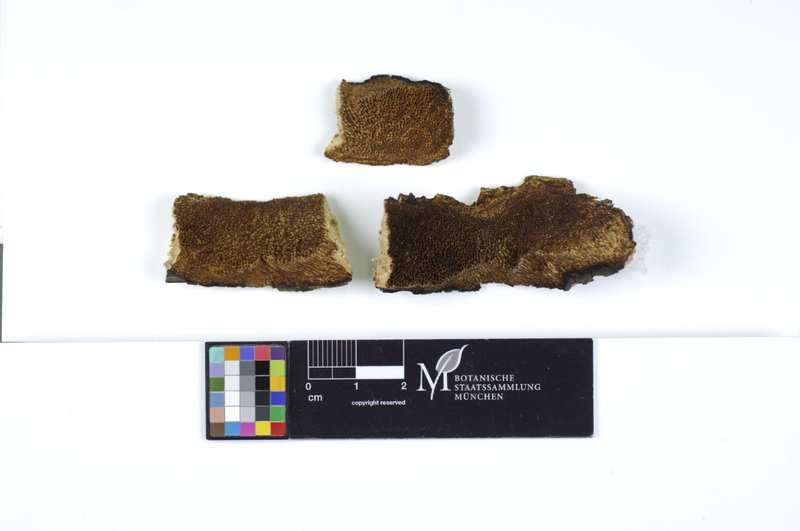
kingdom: Plantae
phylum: Tracheophyta
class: Magnoliopsida
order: Fagales
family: Betulaceae
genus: Corylus
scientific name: Corylus
